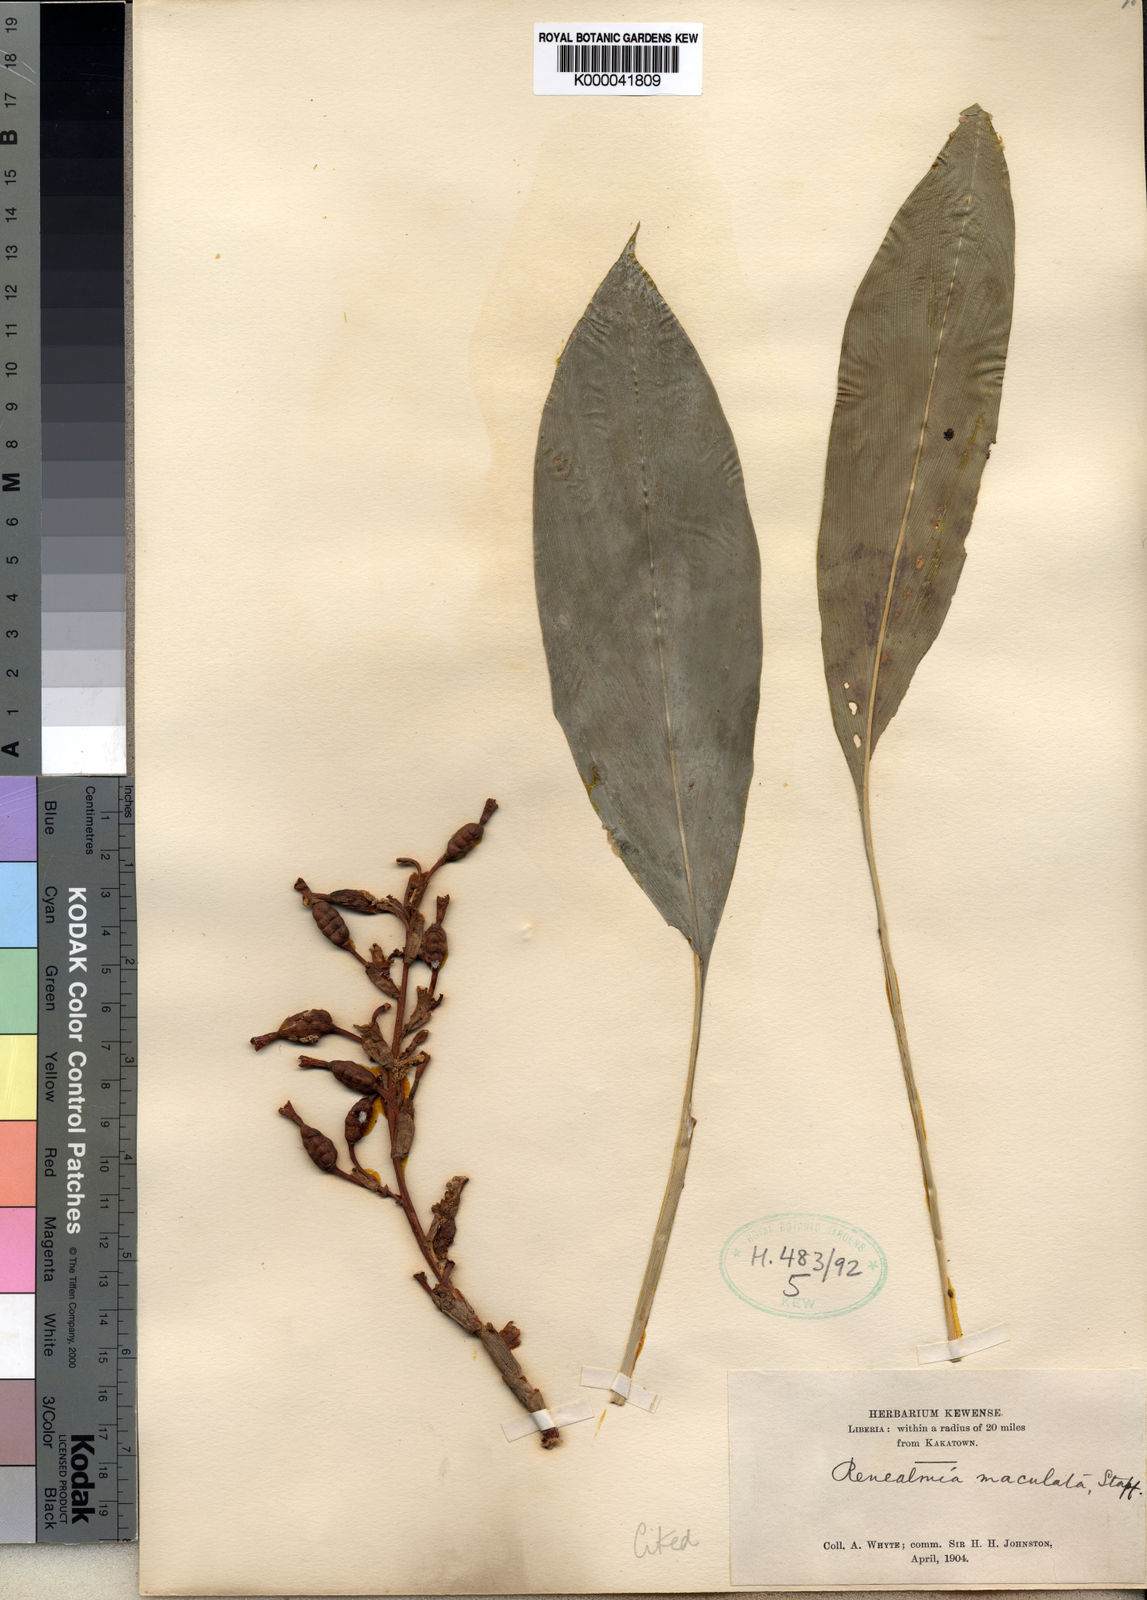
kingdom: Plantae
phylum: Tracheophyta
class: Liliopsida
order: Zingiberales
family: Zingiberaceae
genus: Renealmia
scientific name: Renealmia maculata
